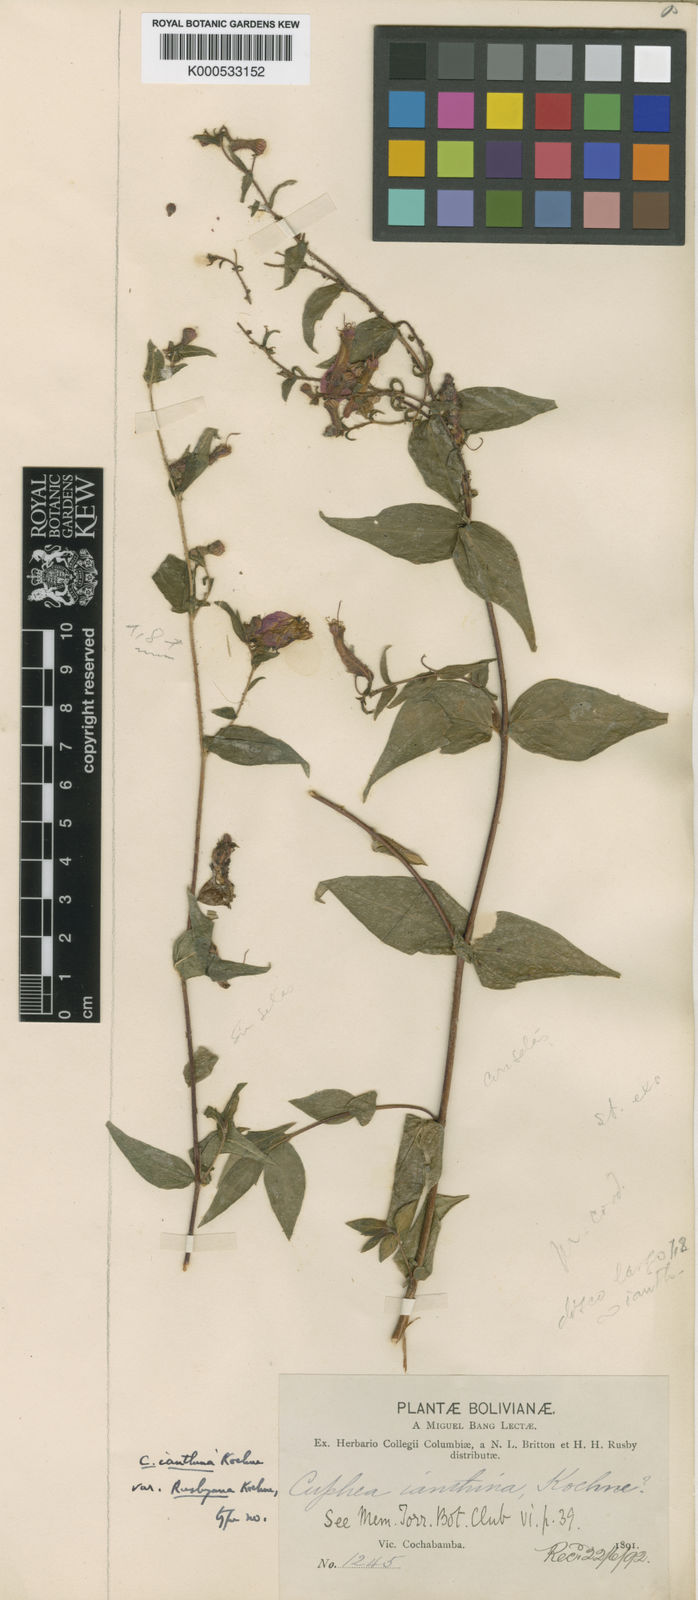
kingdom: Plantae
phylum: Tracheophyta
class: Magnoliopsida
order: Myrtales
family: Lythraceae
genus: Cuphea
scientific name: Cuphea cordata
